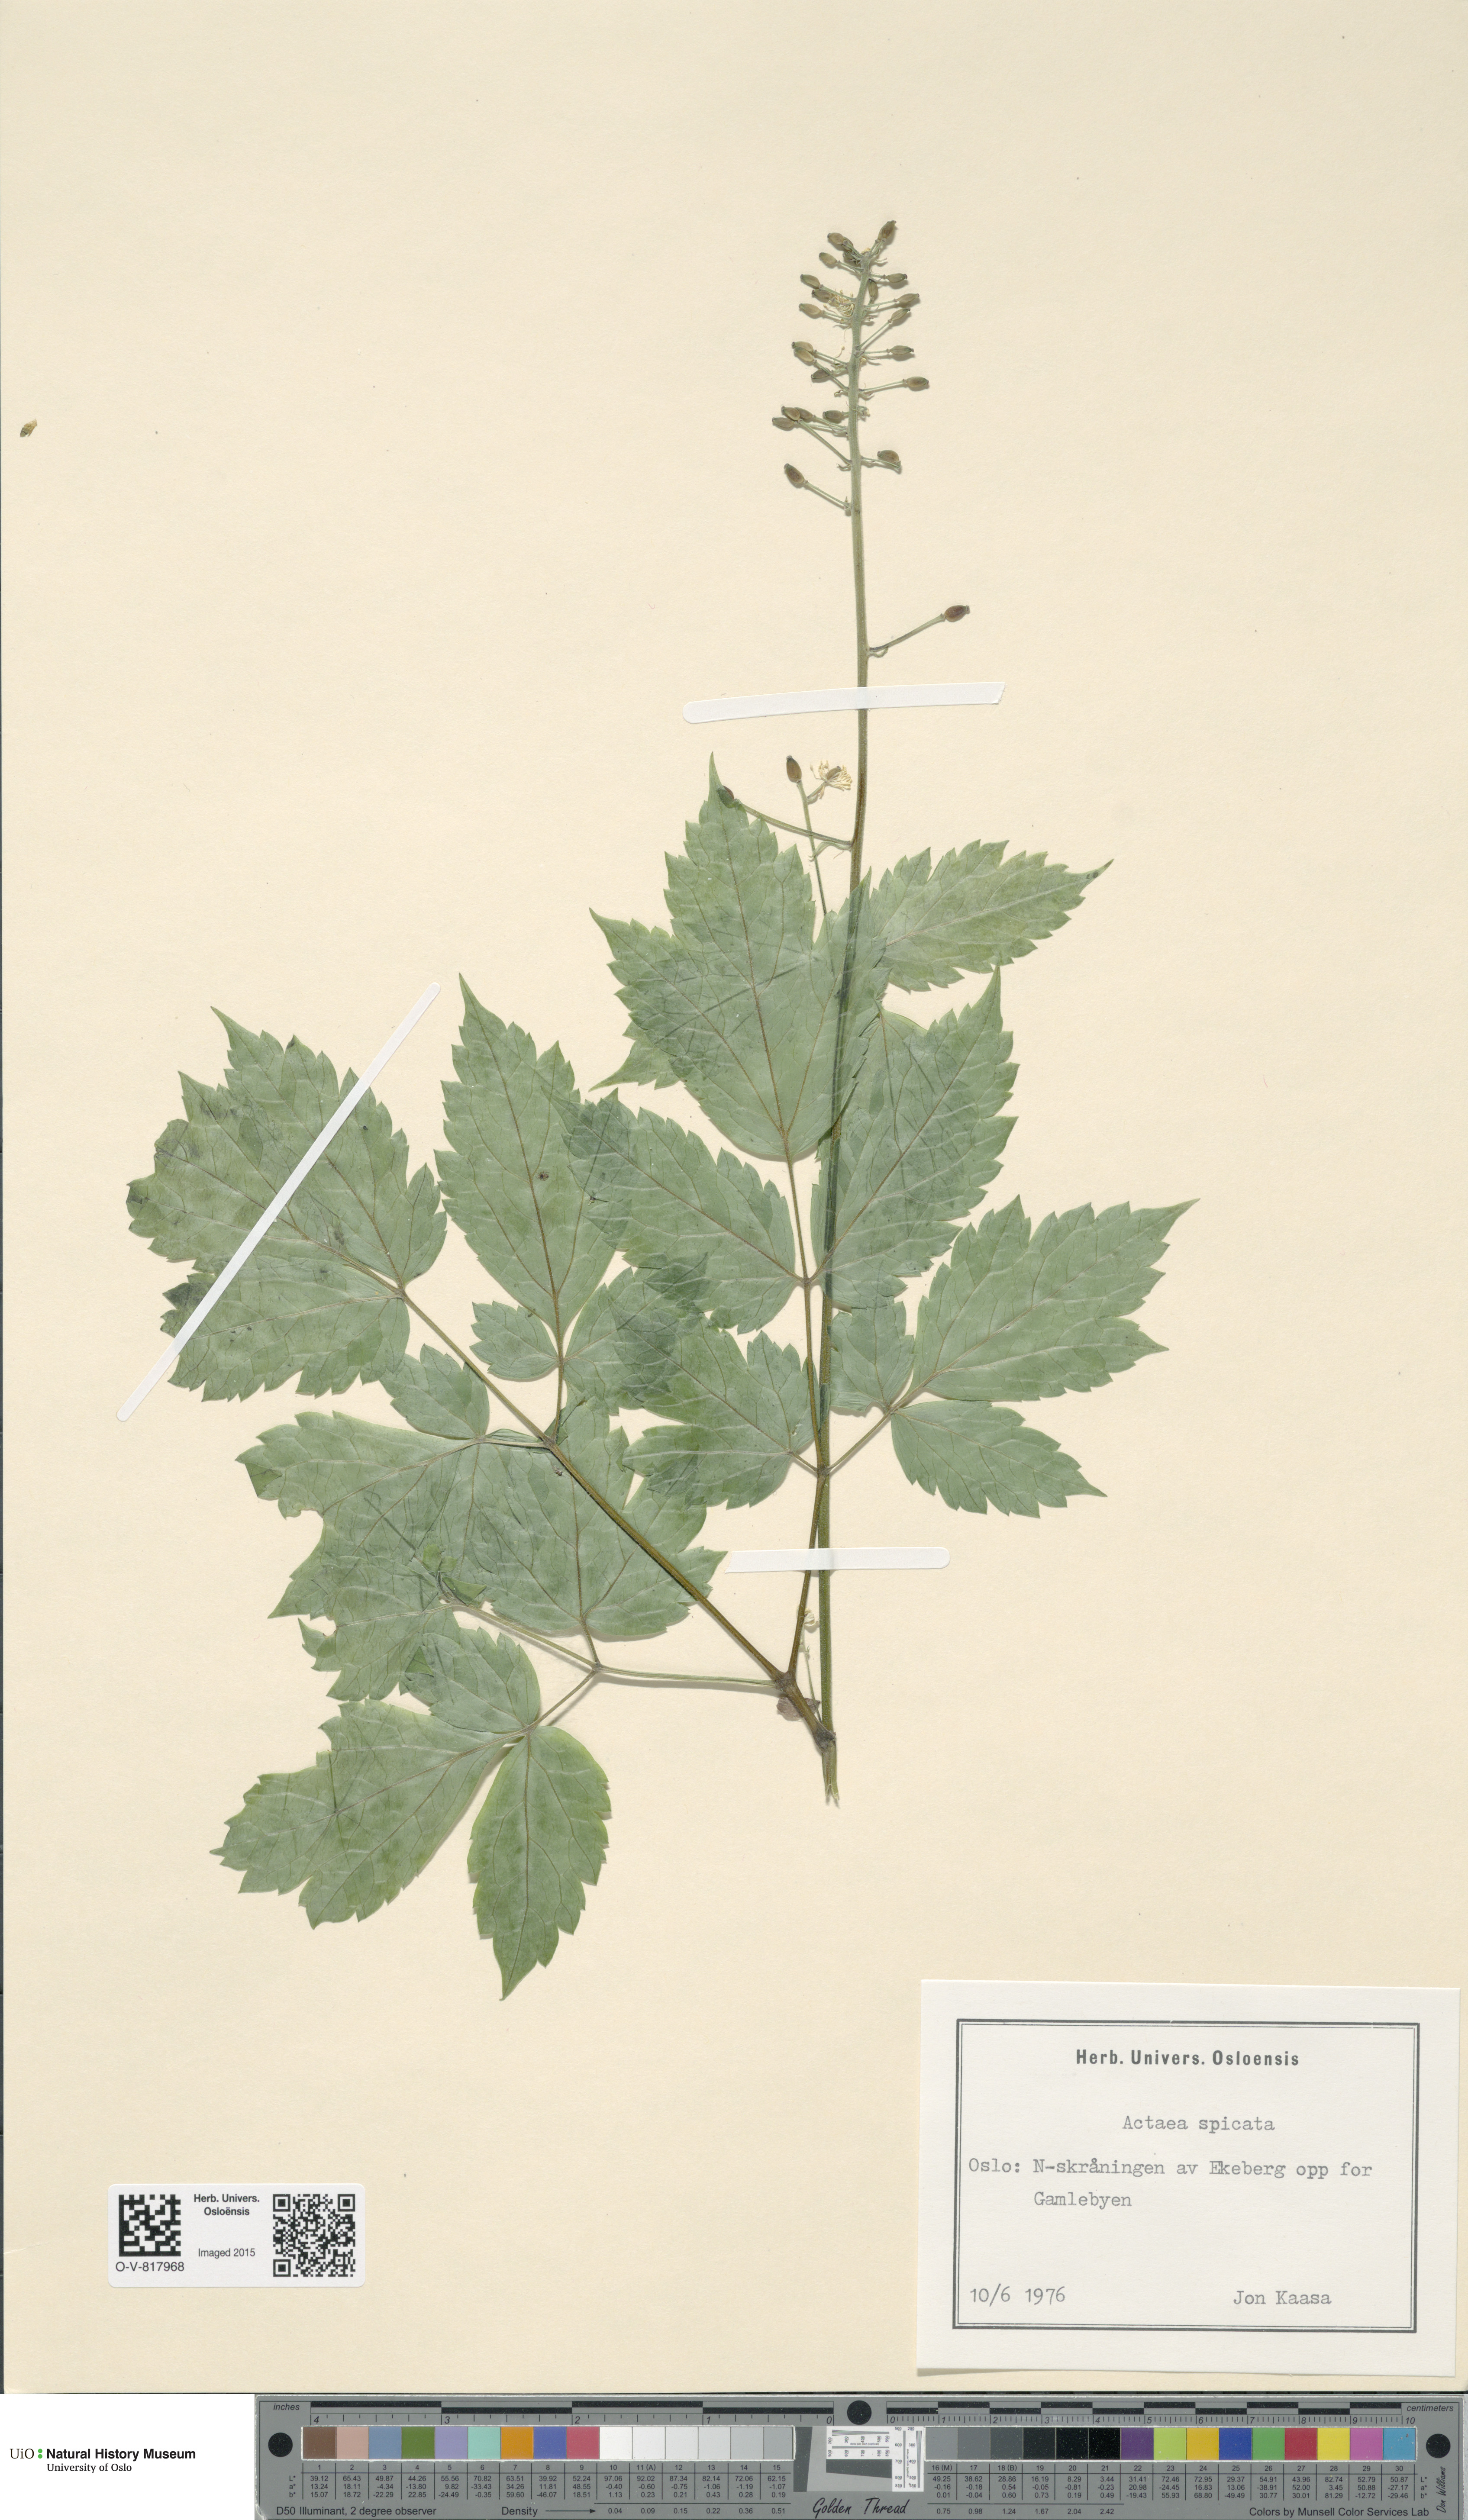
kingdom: Plantae
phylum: Tracheophyta
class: Magnoliopsida
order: Ranunculales
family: Ranunculaceae
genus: Actaea
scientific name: Actaea spicata
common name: Baneberry
